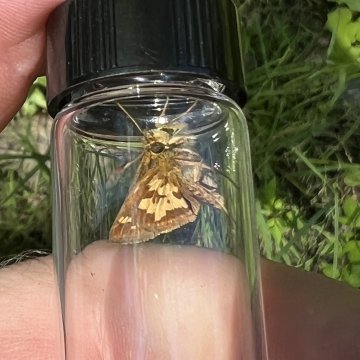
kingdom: Animalia
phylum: Arthropoda
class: Insecta
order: Lepidoptera
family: Hesperiidae
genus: Polites
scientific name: Polites coras
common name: Peck's Skipper
